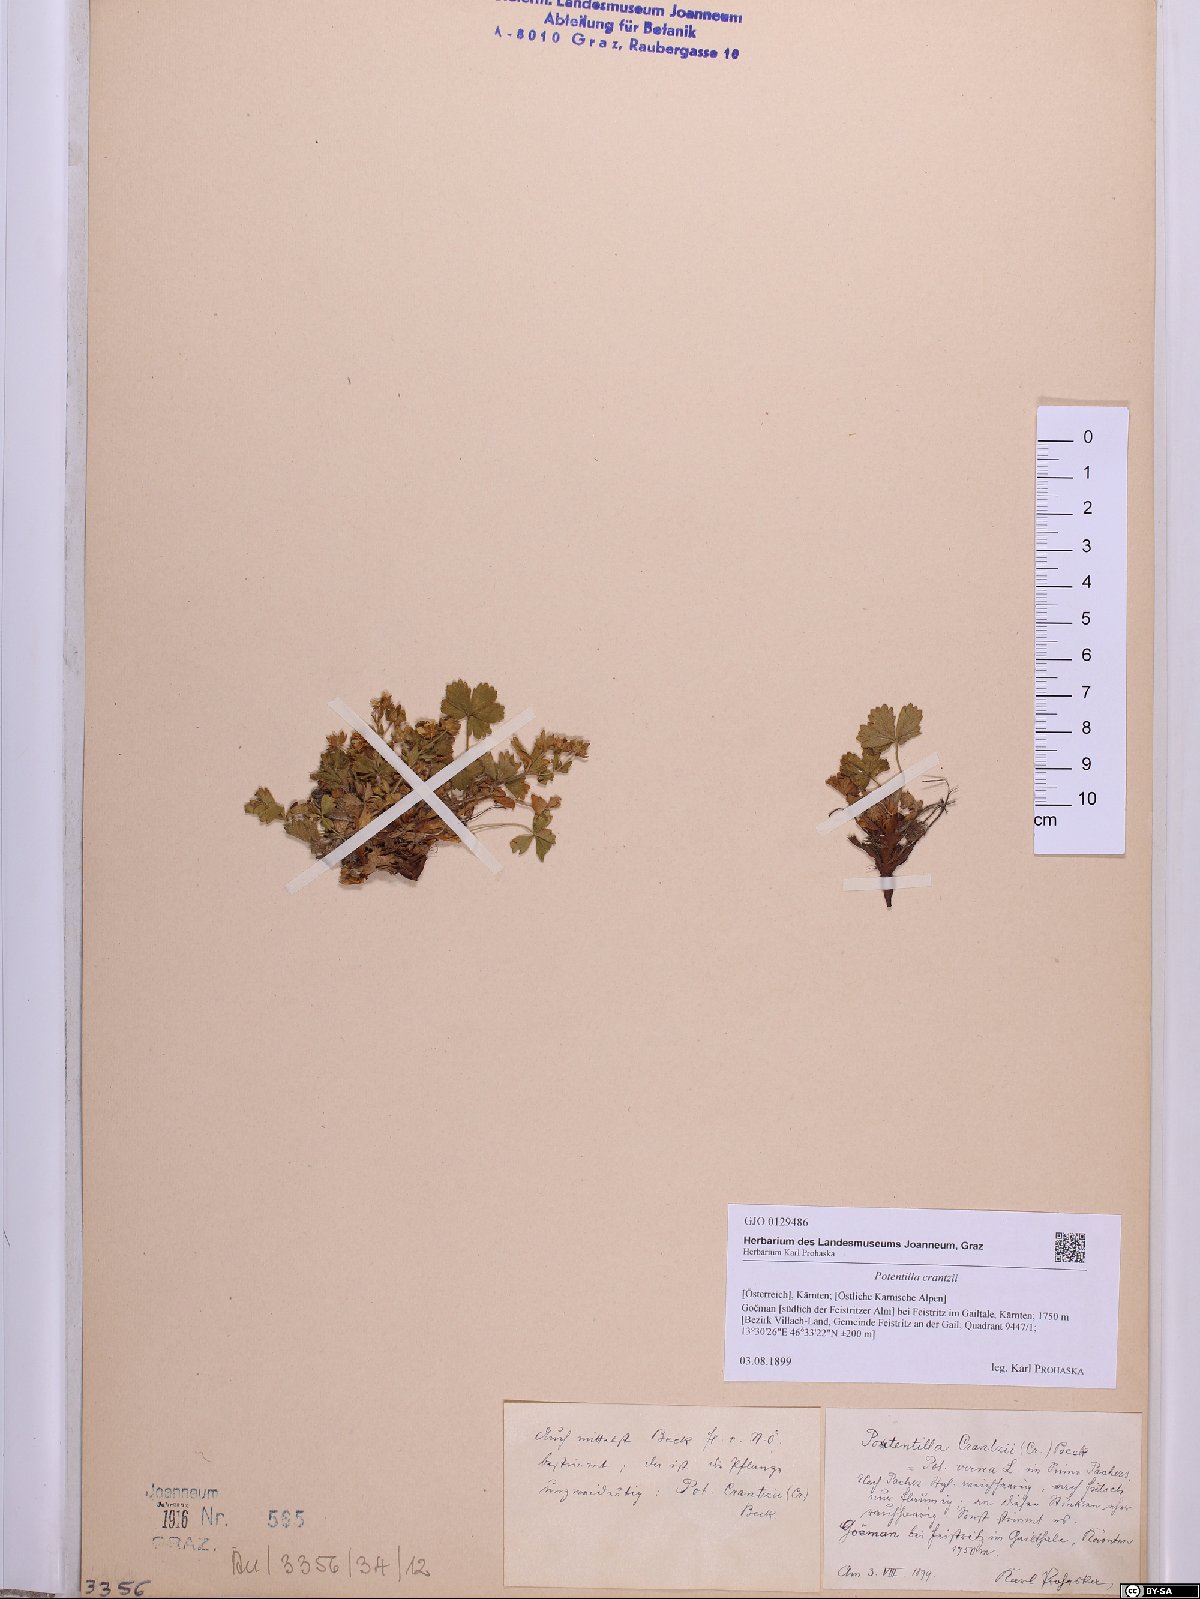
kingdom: Plantae
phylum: Tracheophyta
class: Magnoliopsida
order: Rosales
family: Rosaceae
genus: Potentilla
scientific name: Potentilla crantzii
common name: Alpine cinquefoil
